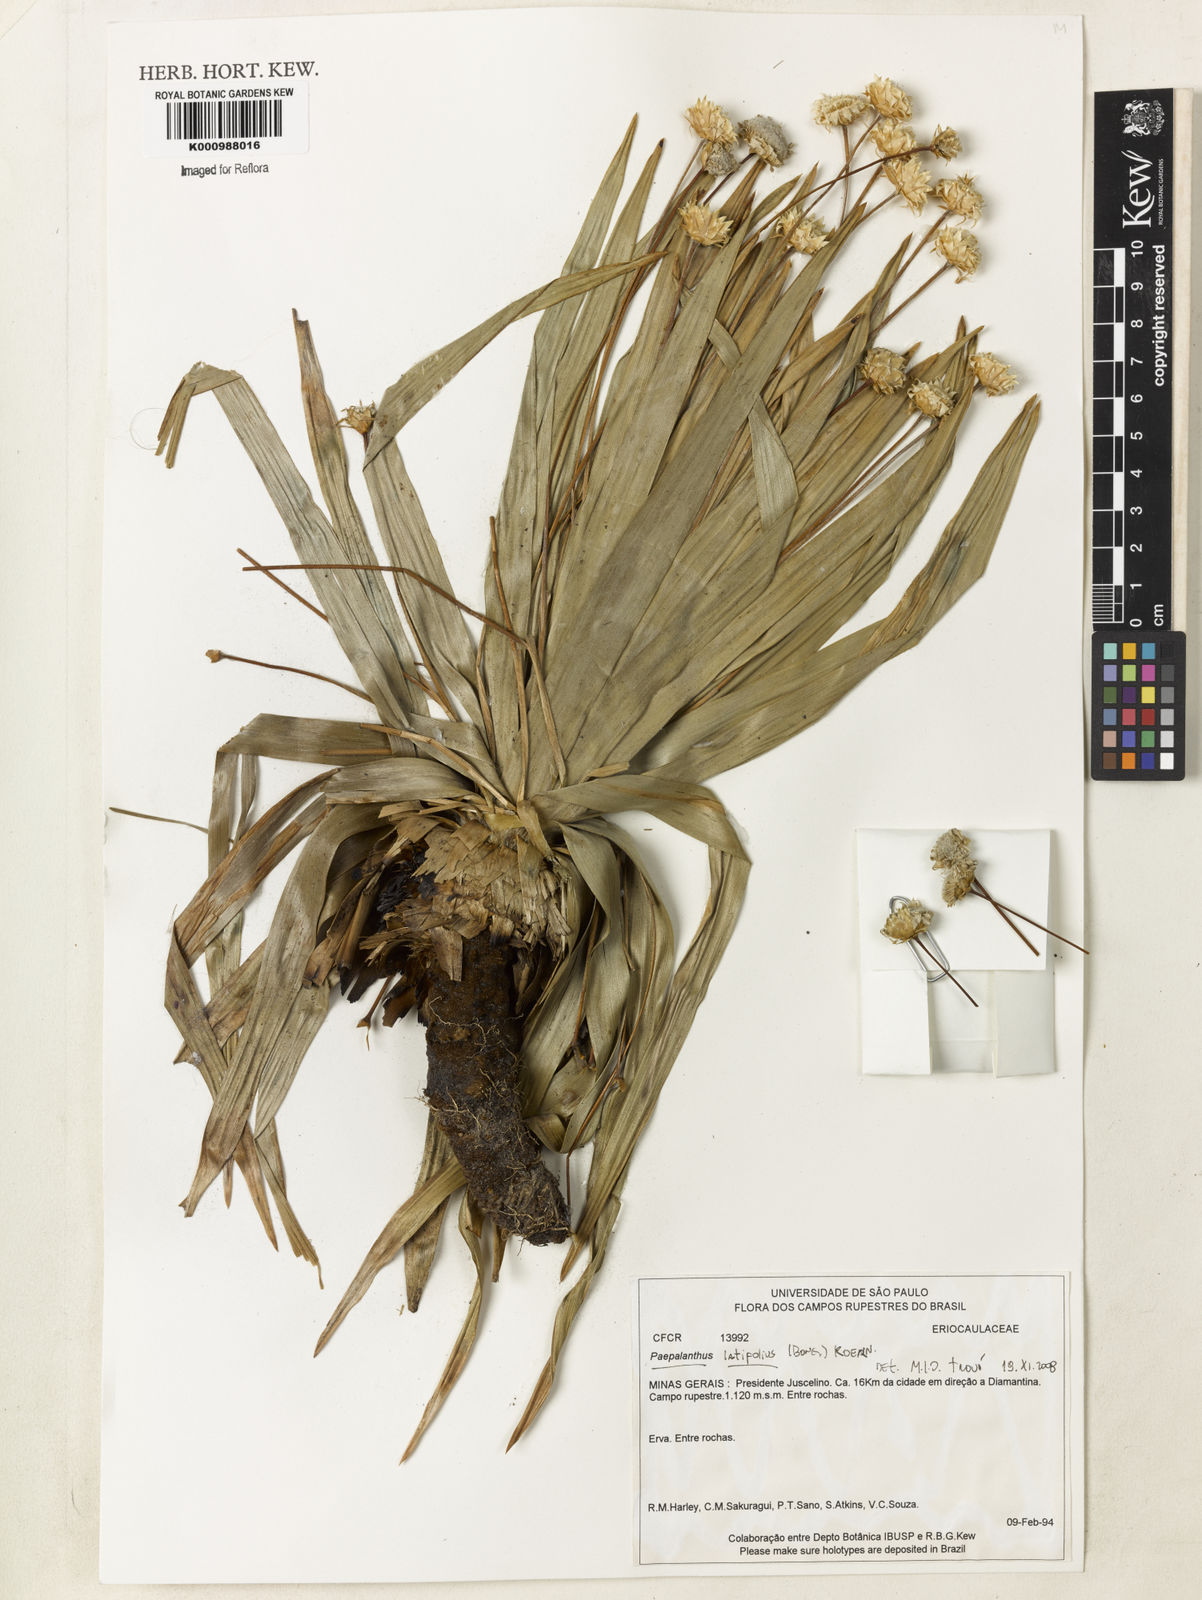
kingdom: Plantae
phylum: Tracheophyta
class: Liliopsida
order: Poales
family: Eriocaulaceae
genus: Paepalanthus
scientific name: Paepalanthus
